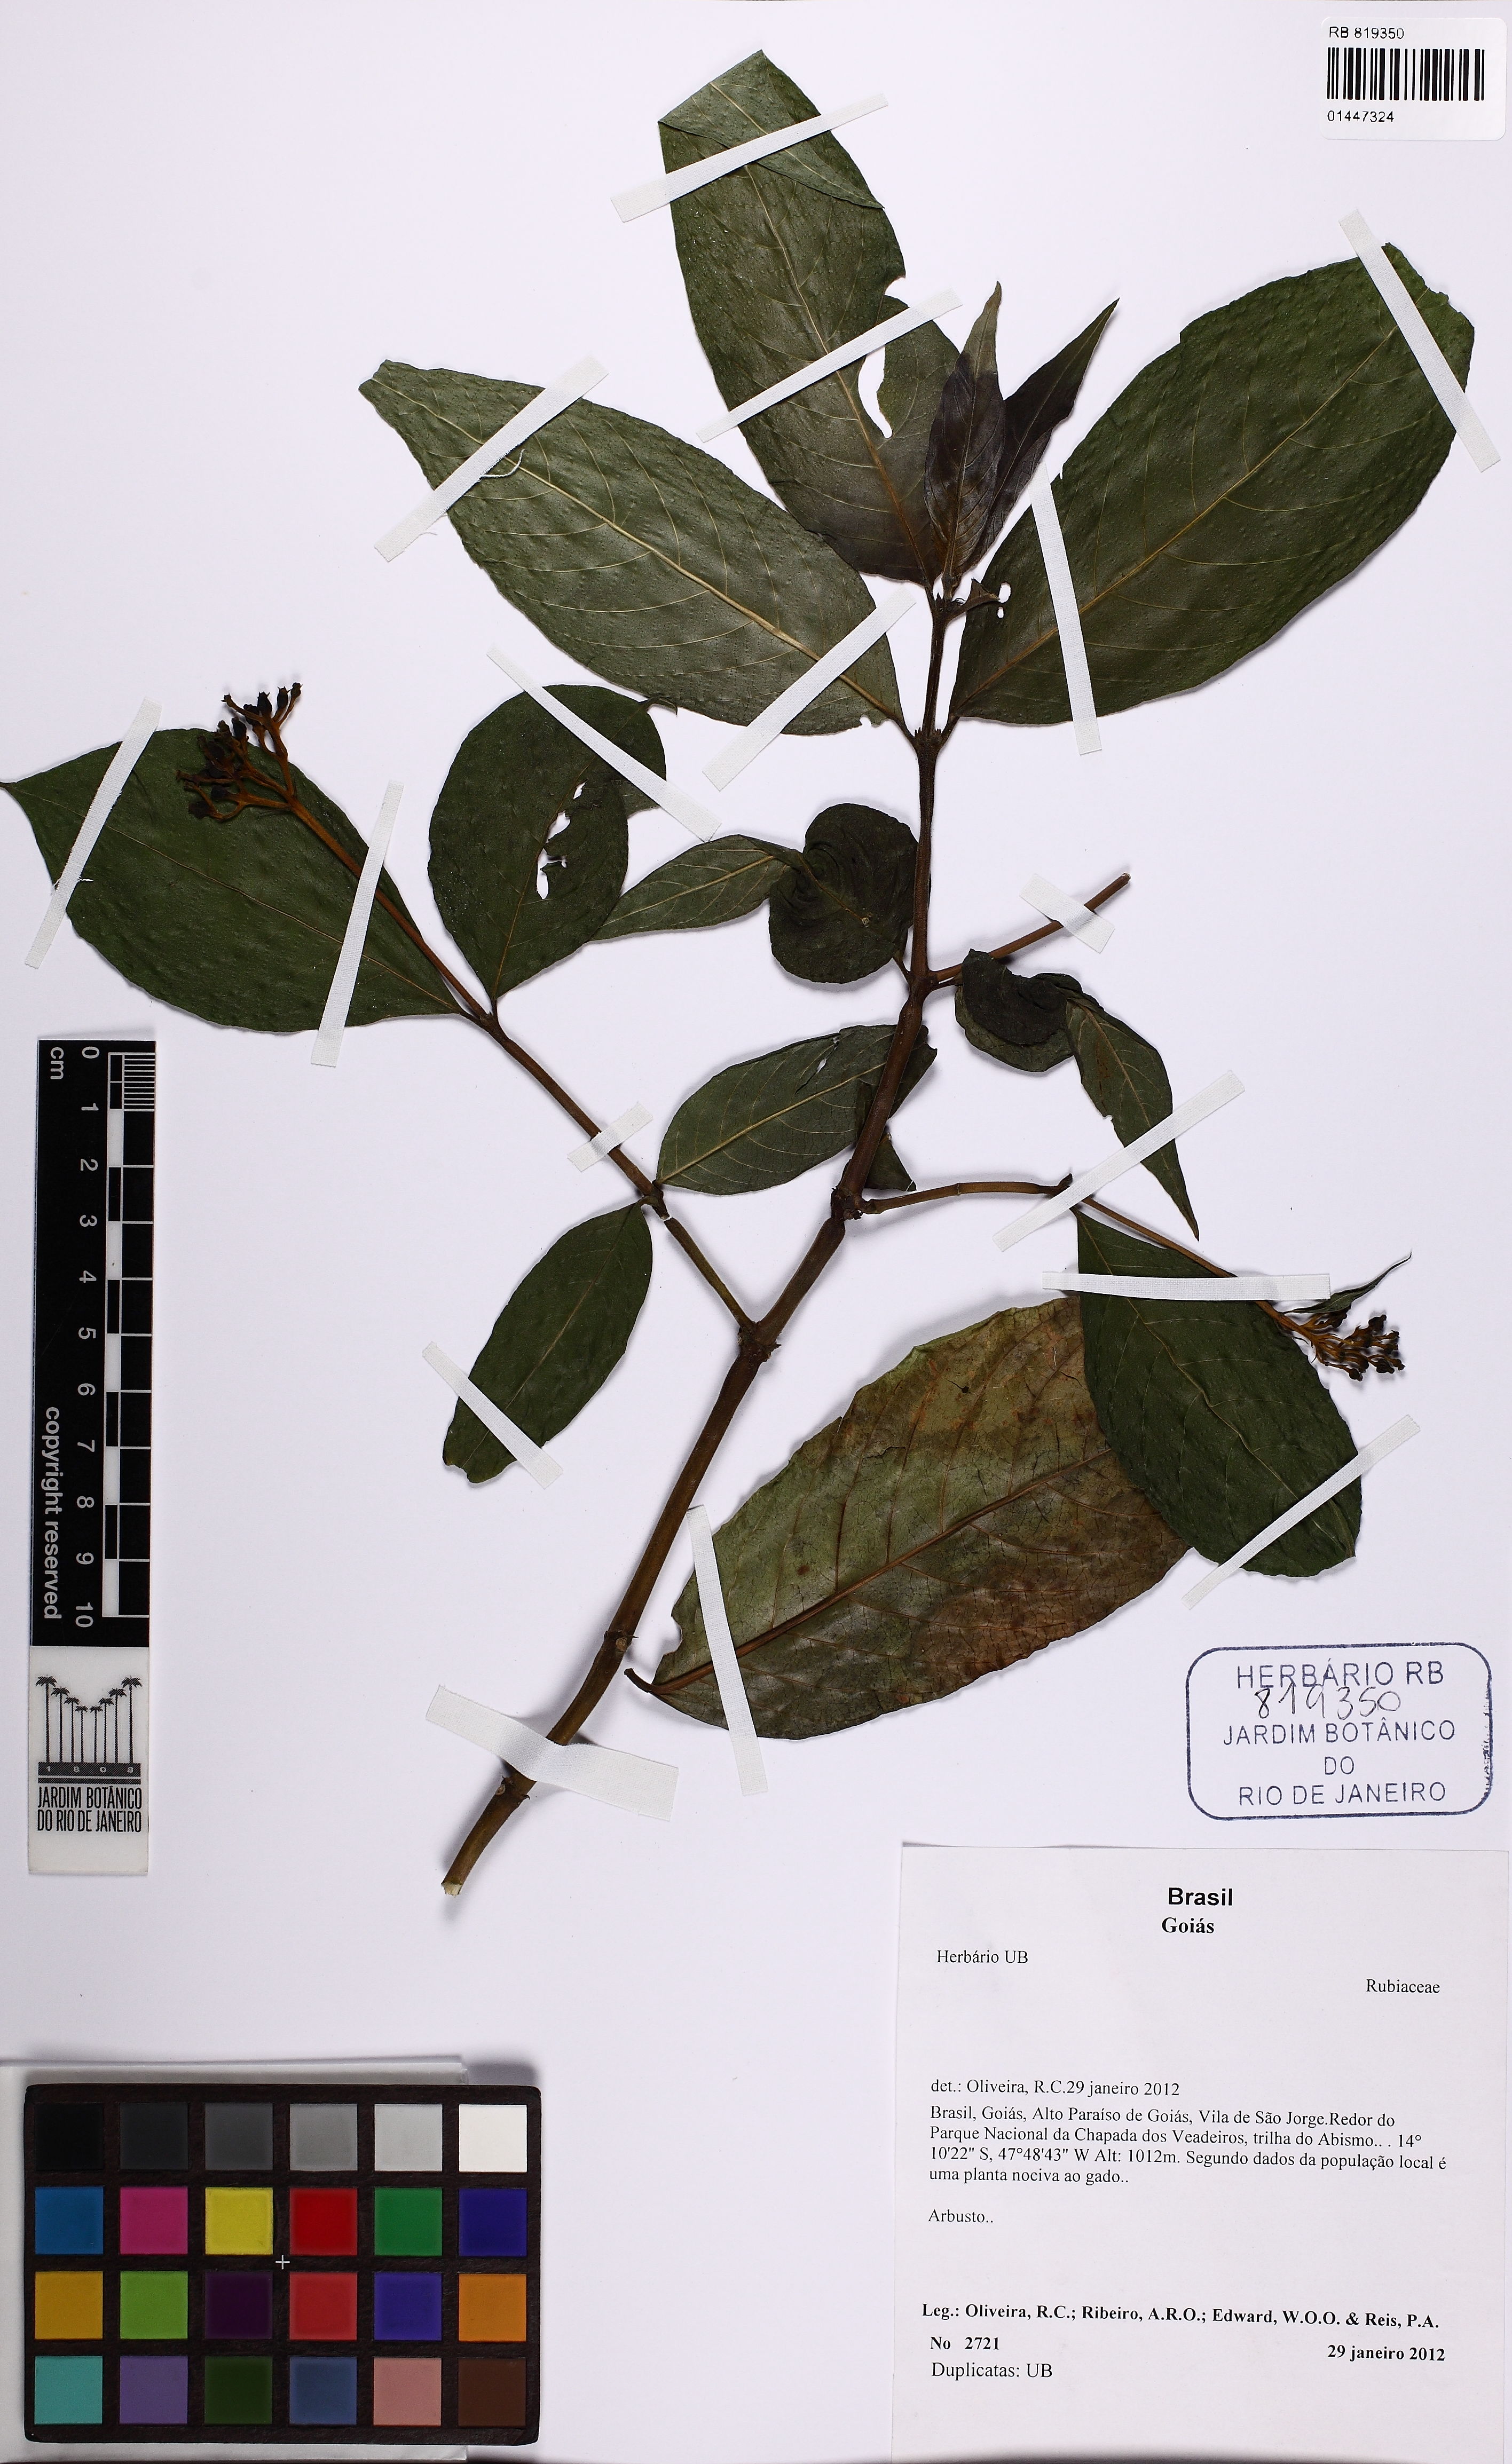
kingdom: Plantae
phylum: Tracheophyta
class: Magnoliopsida
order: Gentianales
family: Rubiaceae
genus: Palicourea
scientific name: Palicourea
